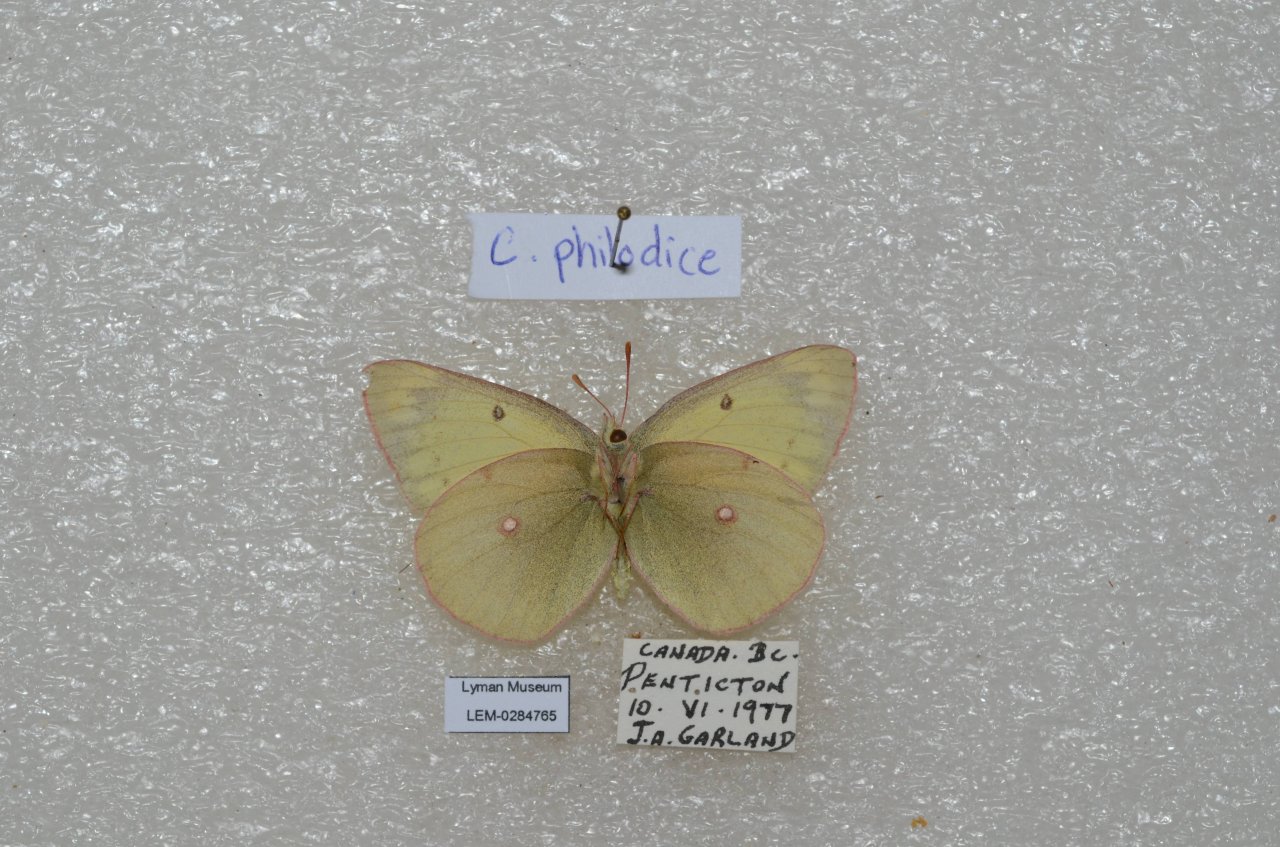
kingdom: Animalia
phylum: Arthropoda
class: Insecta
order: Lepidoptera
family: Pieridae
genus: Colias
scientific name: Colias philodice
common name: Clouded Sulphur
